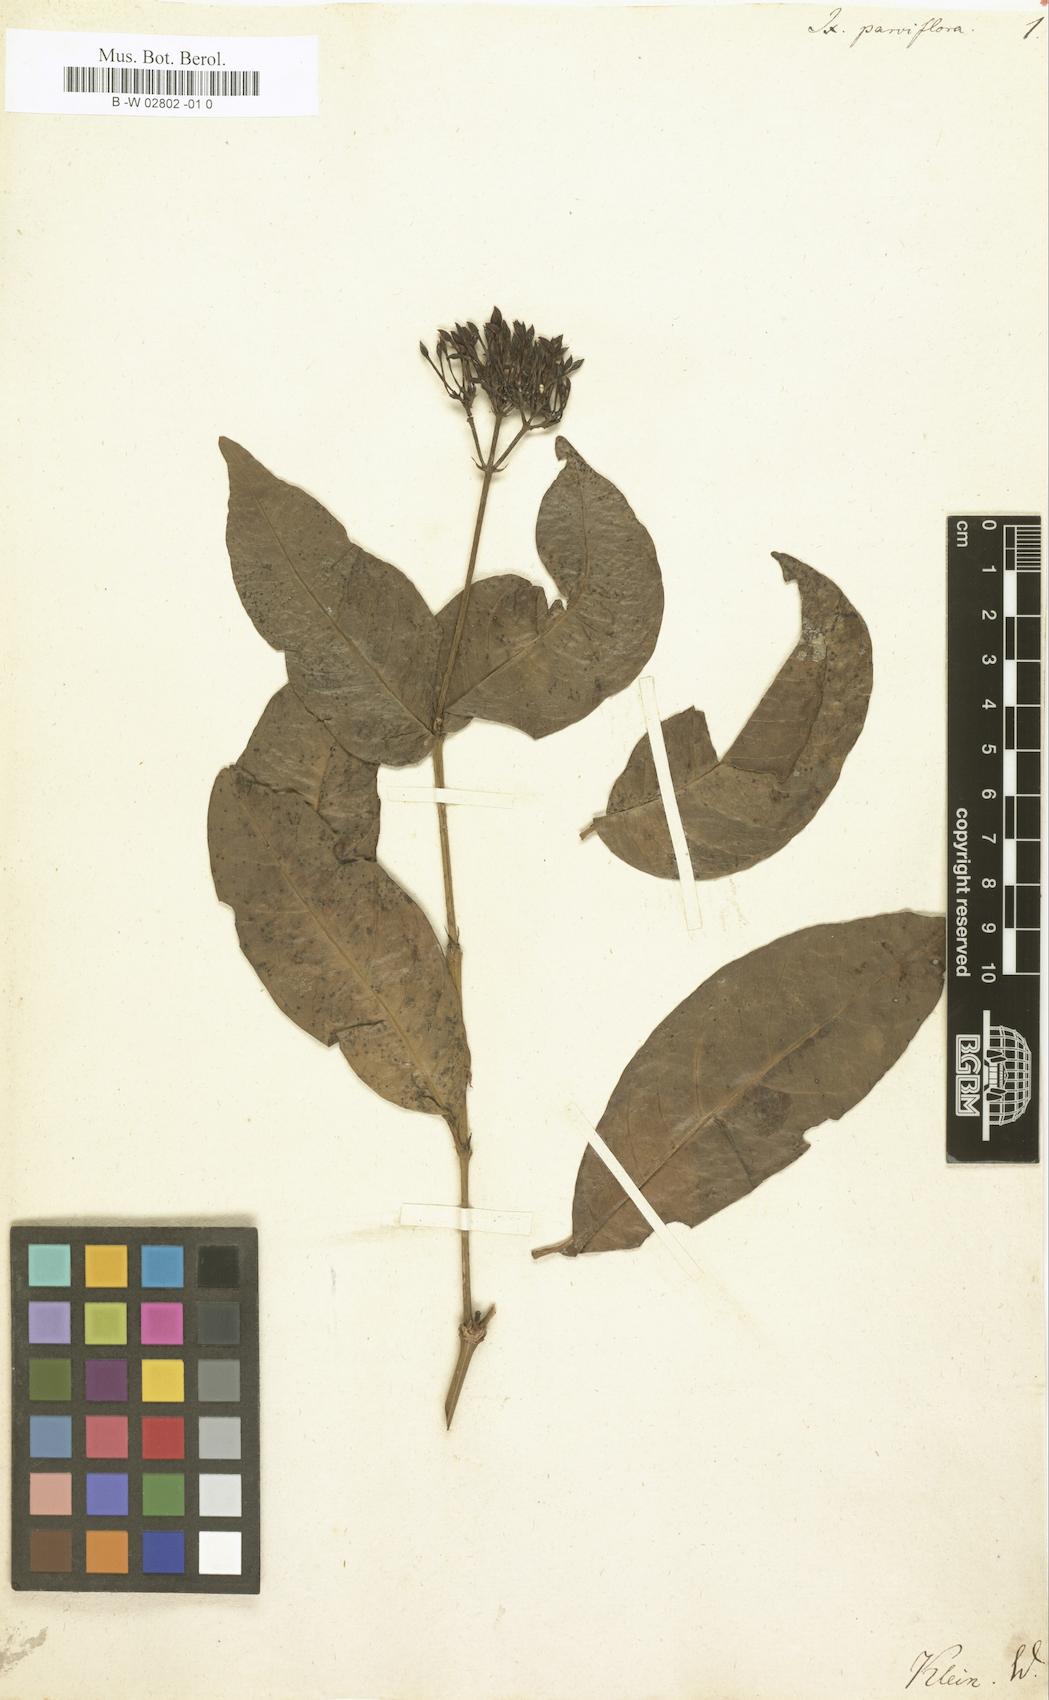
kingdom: Plantae
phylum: Tracheophyta
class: Magnoliopsida
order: Gentianales
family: Rubiaceae
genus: Ixora
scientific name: Ixora parviflora
